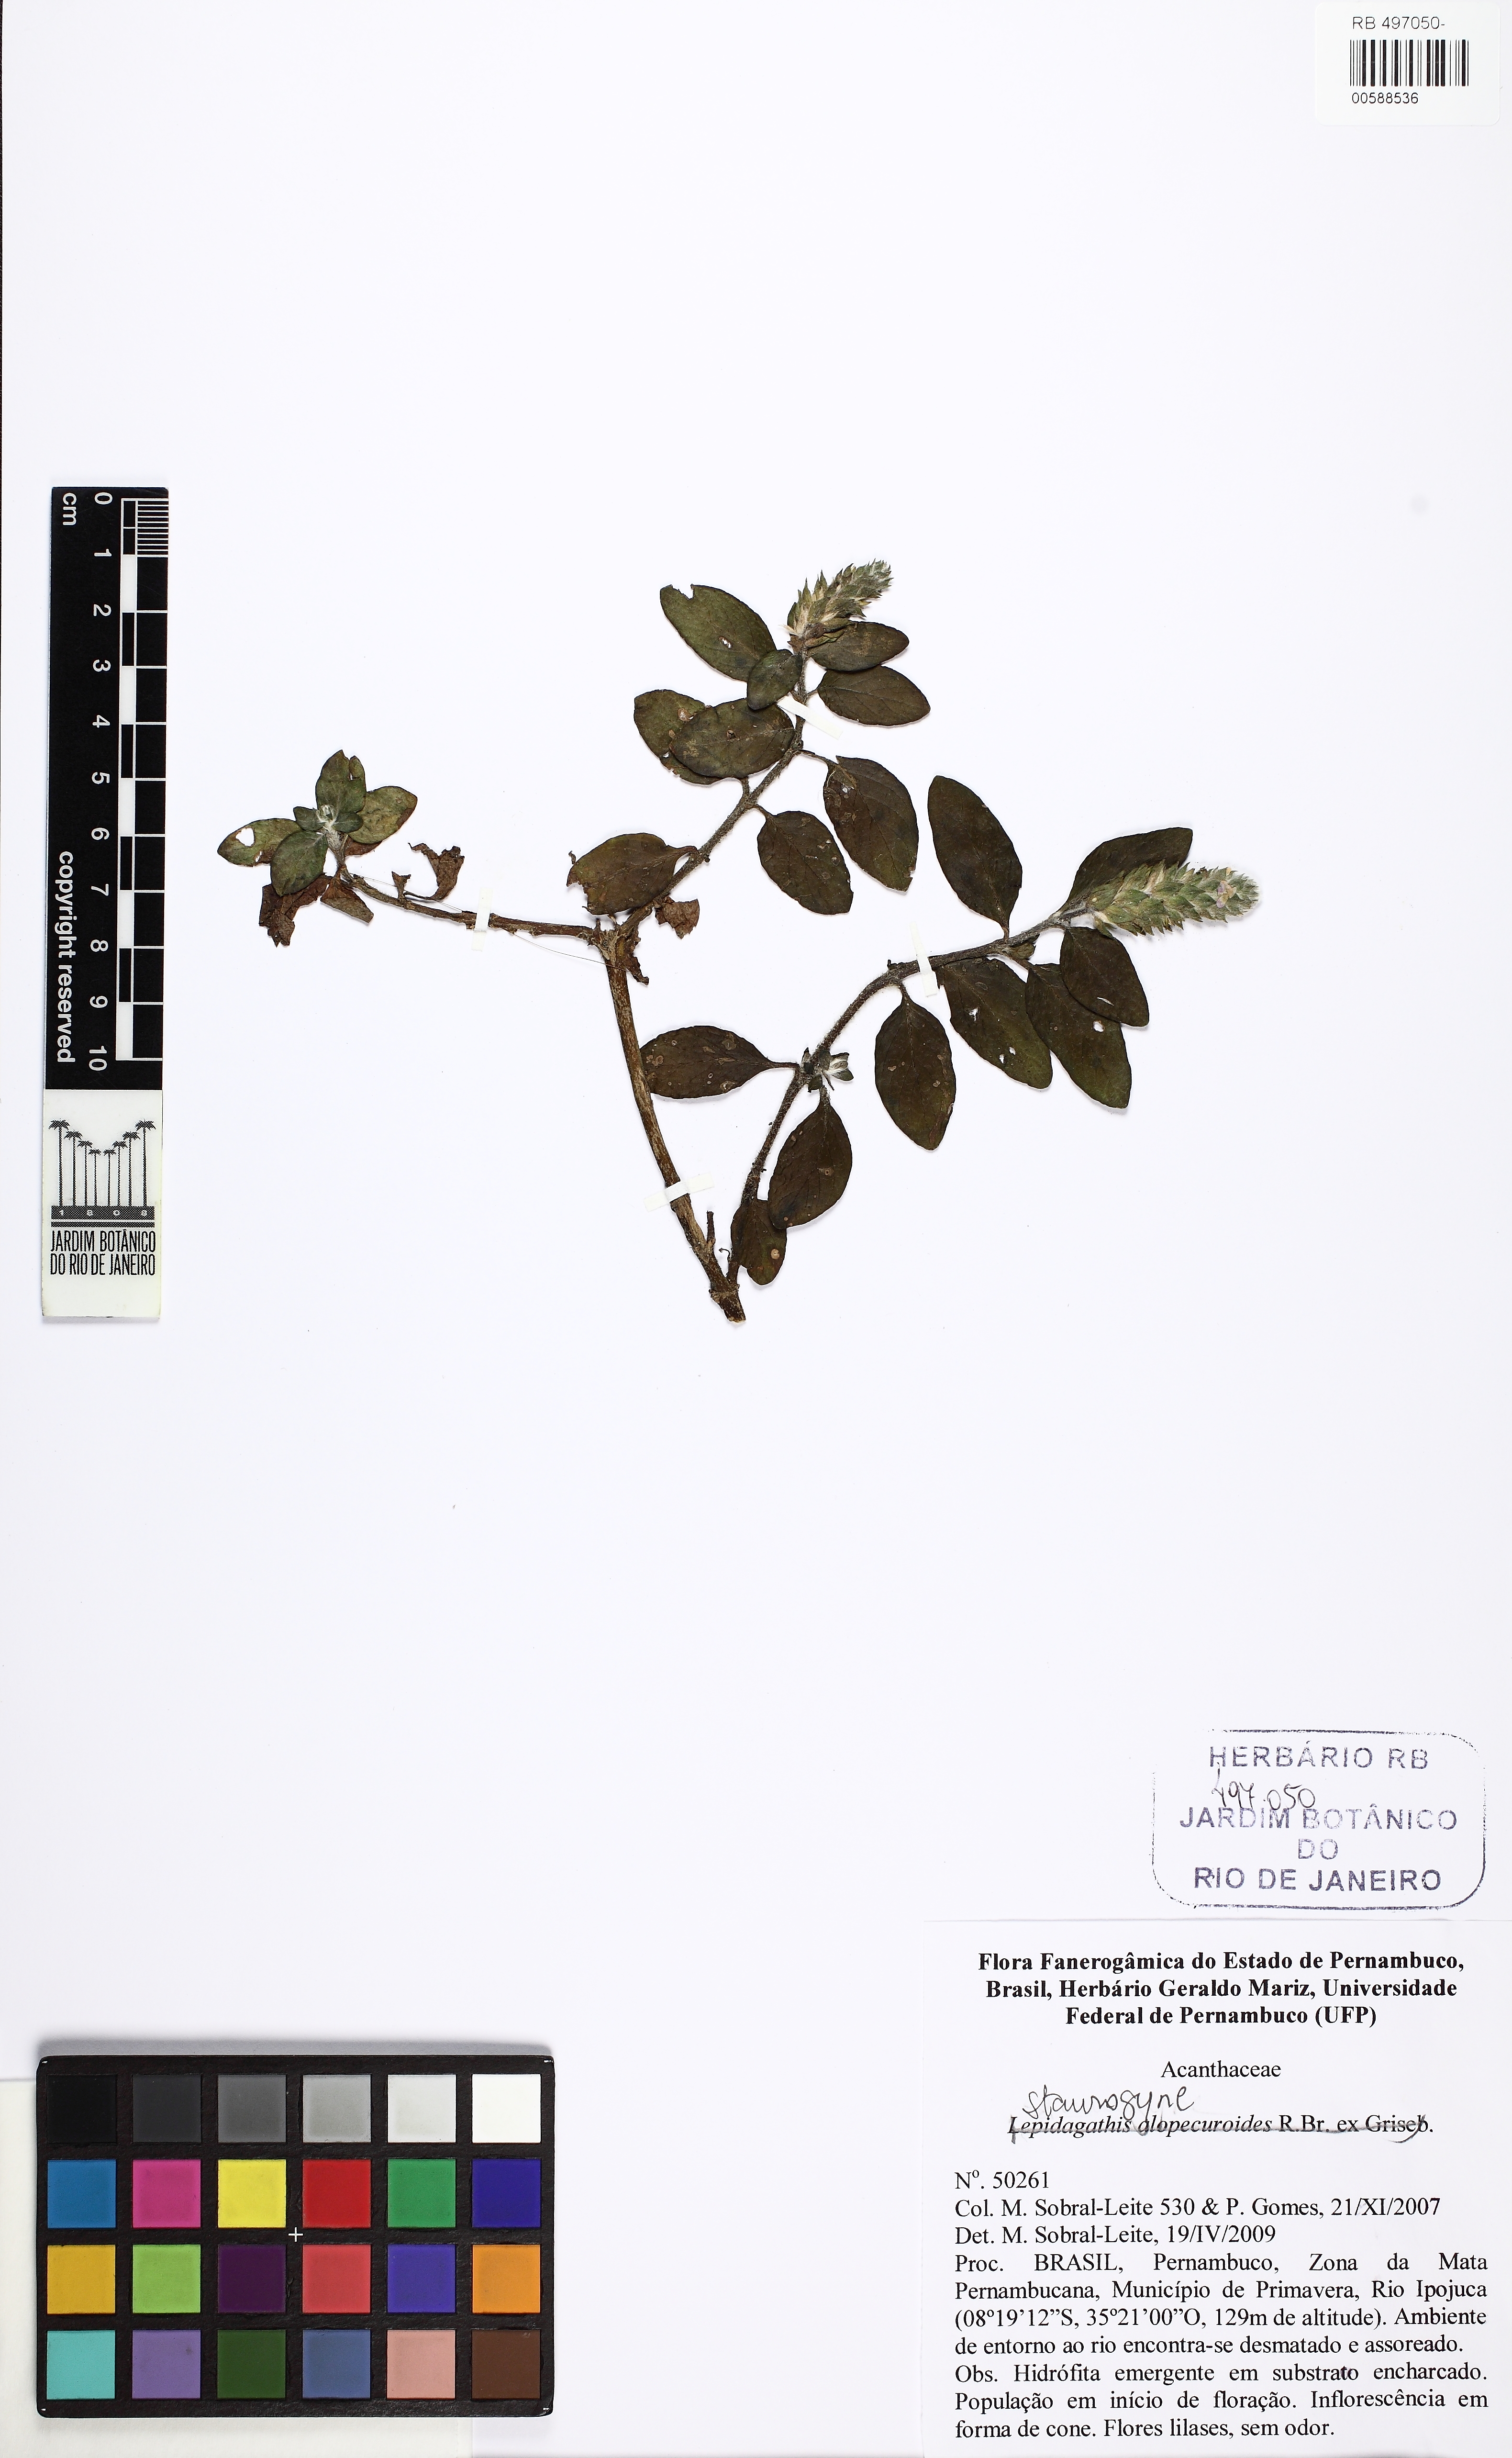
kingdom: Plantae
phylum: Tracheophyta
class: Magnoliopsida
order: Lamiales
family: Acanthaceae
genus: Staurogyne
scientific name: Staurogyne
